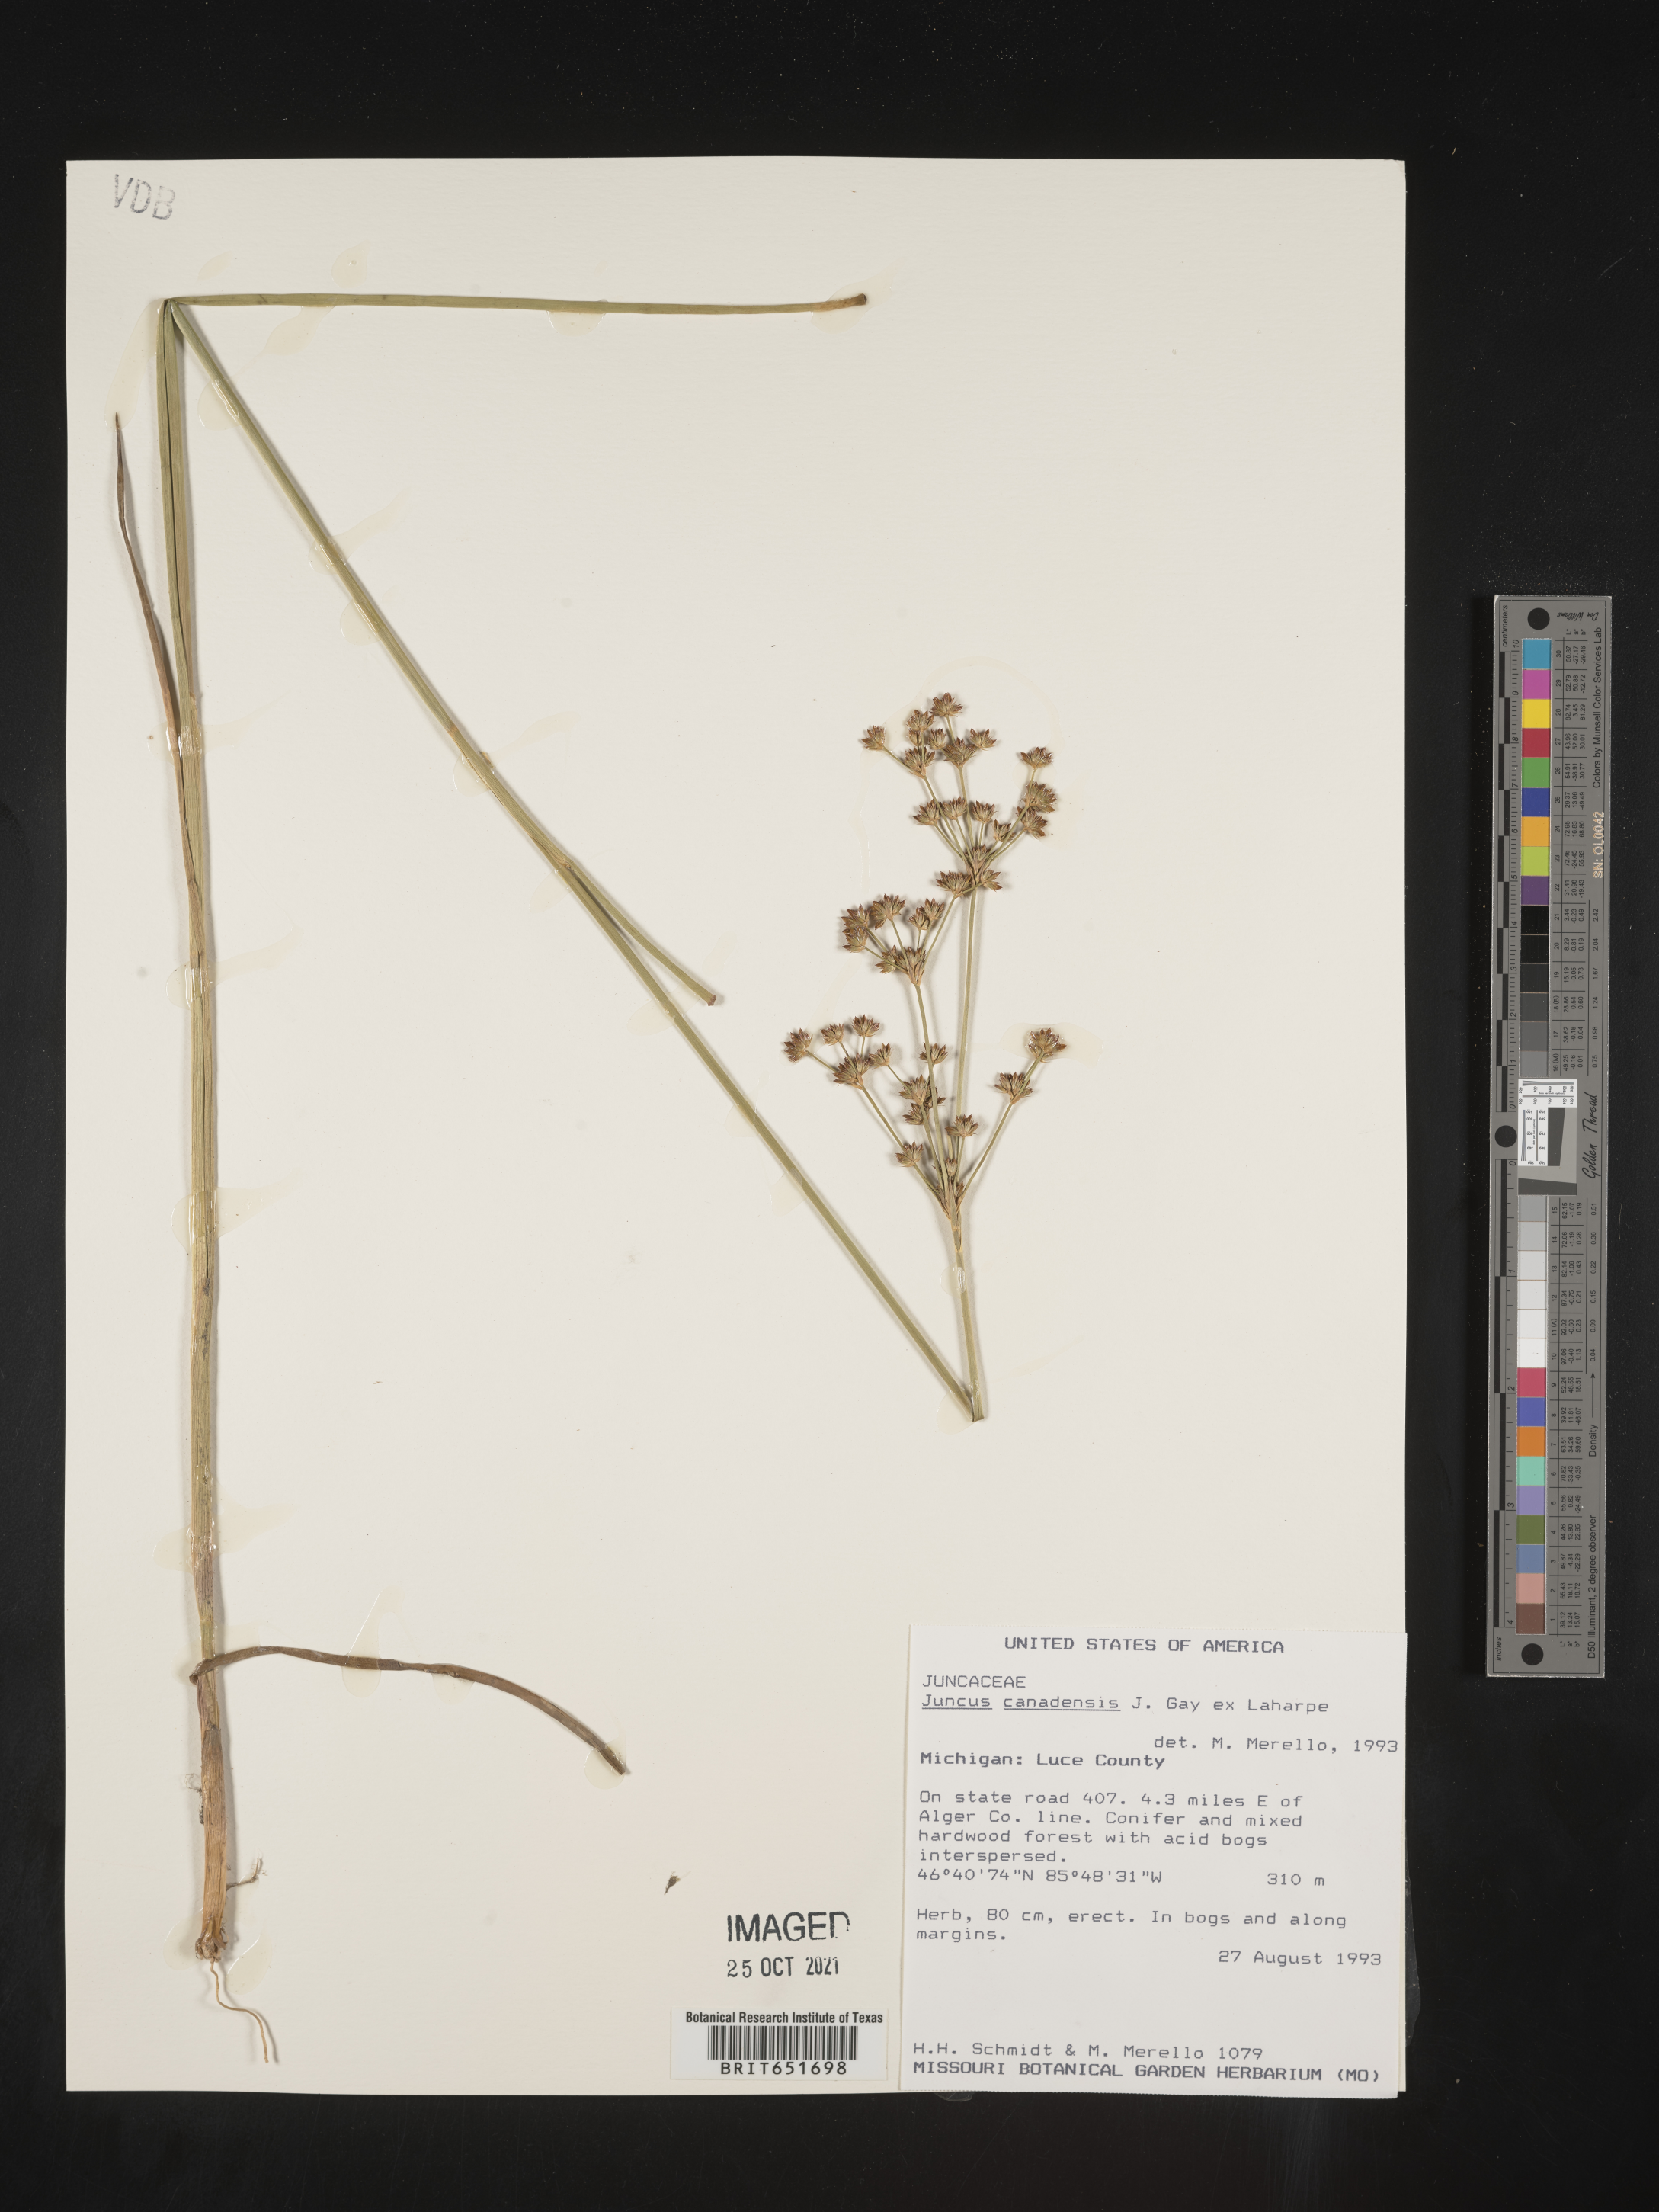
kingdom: Plantae
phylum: Tracheophyta
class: Liliopsida
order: Poales
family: Juncaceae
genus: Juncus
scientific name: Juncus canadensis
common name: Canada rush
